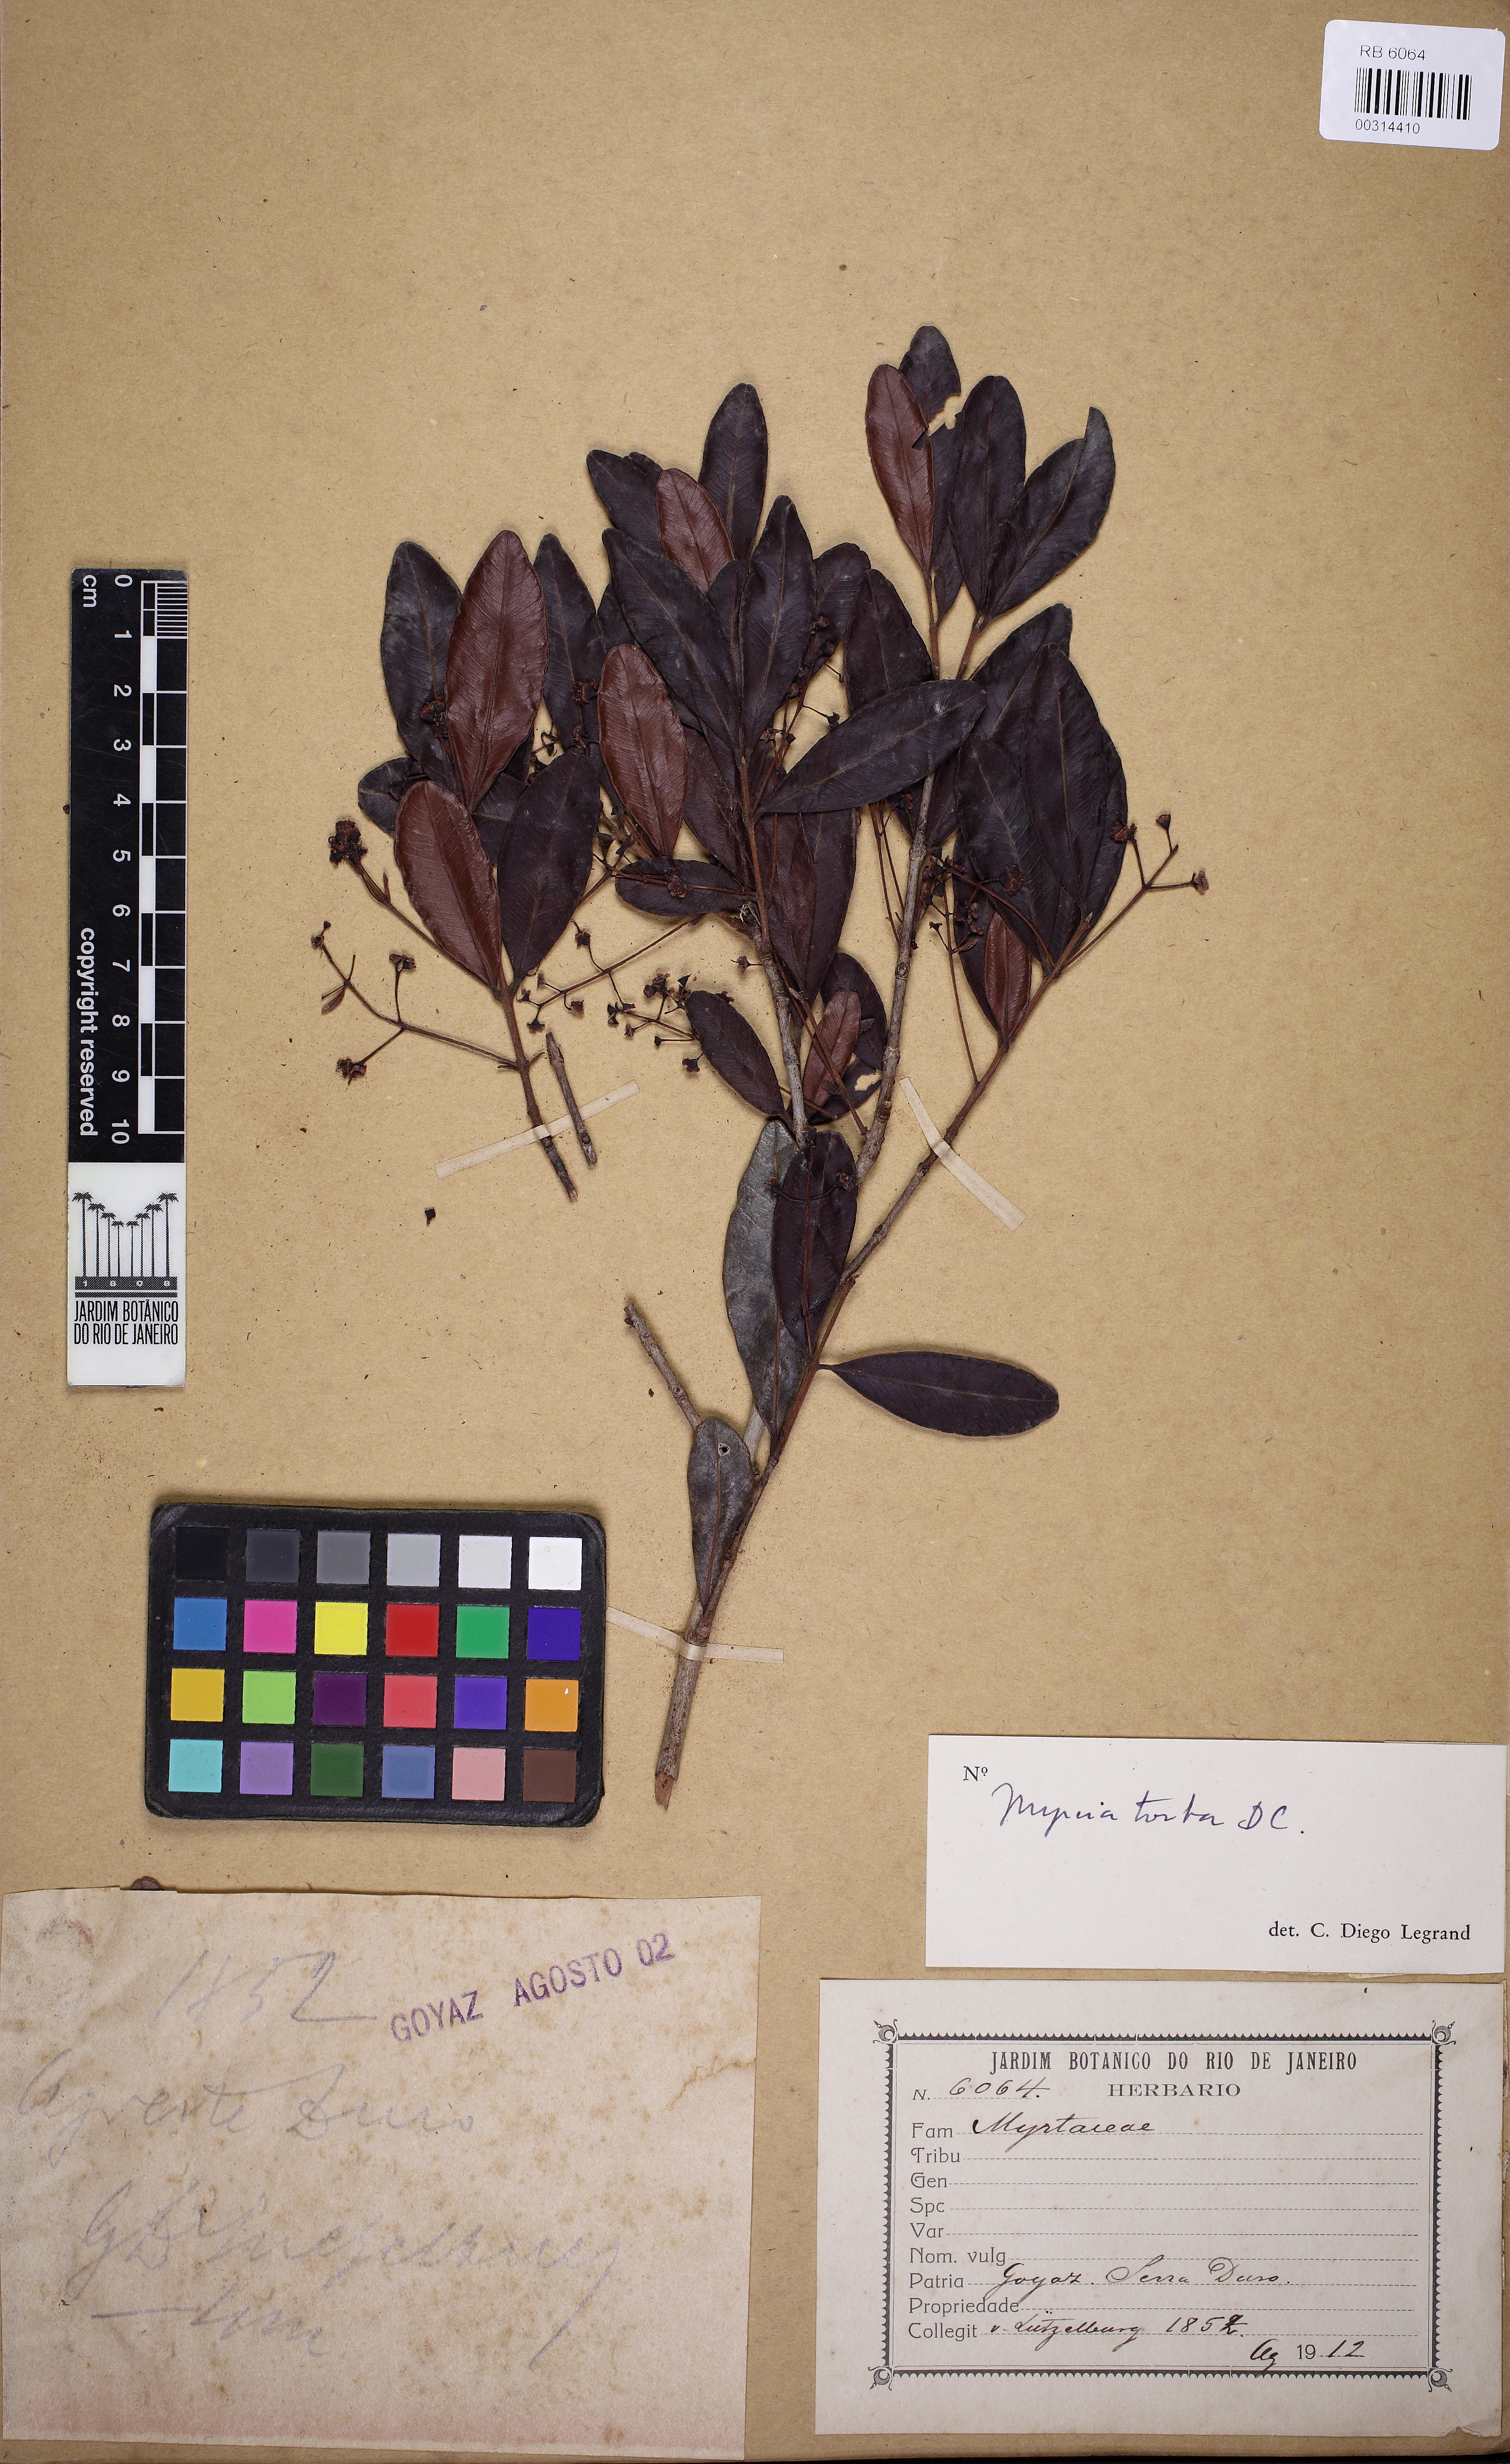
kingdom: Plantae
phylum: Tracheophyta
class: Magnoliopsida
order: Myrtales
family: Myrtaceae
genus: Myrcia
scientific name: Myrcia guianensis
